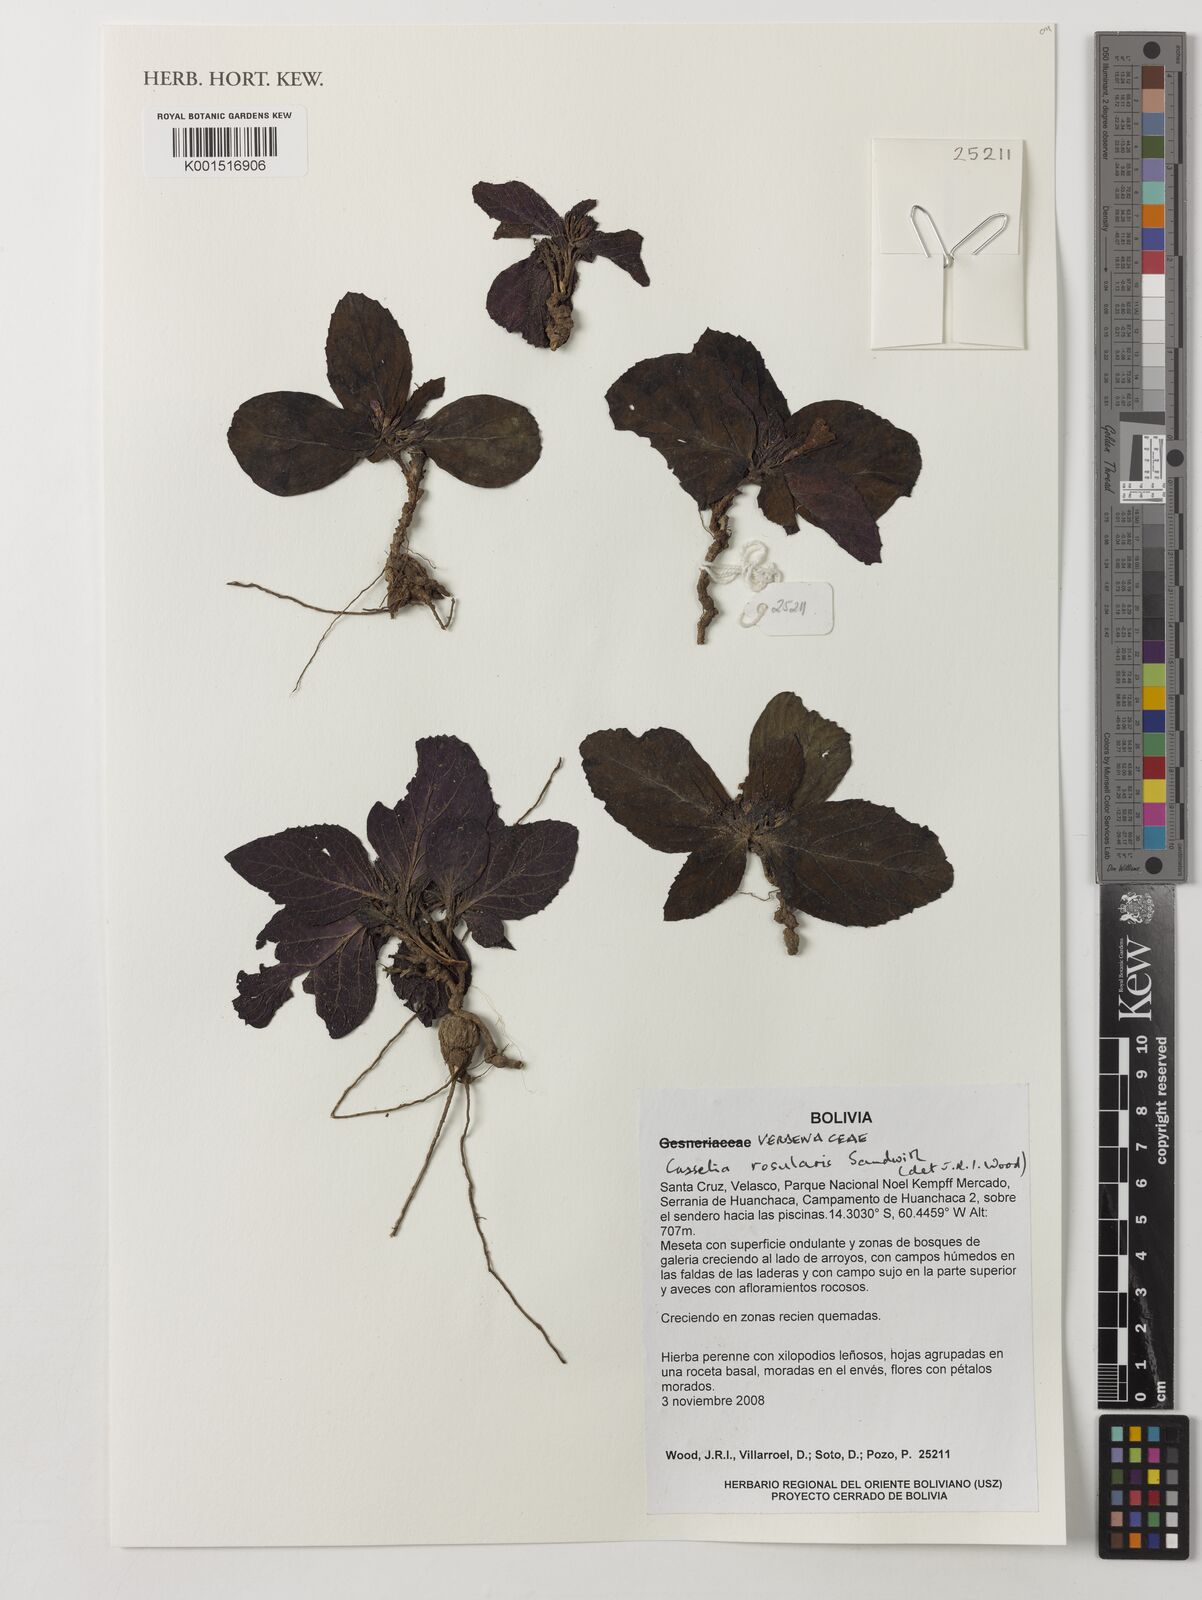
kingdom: Plantae
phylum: Tracheophyta
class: Magnoliopsida
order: Lamiales
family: Verbenaceae
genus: Casselia
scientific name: Casselia rosularis
